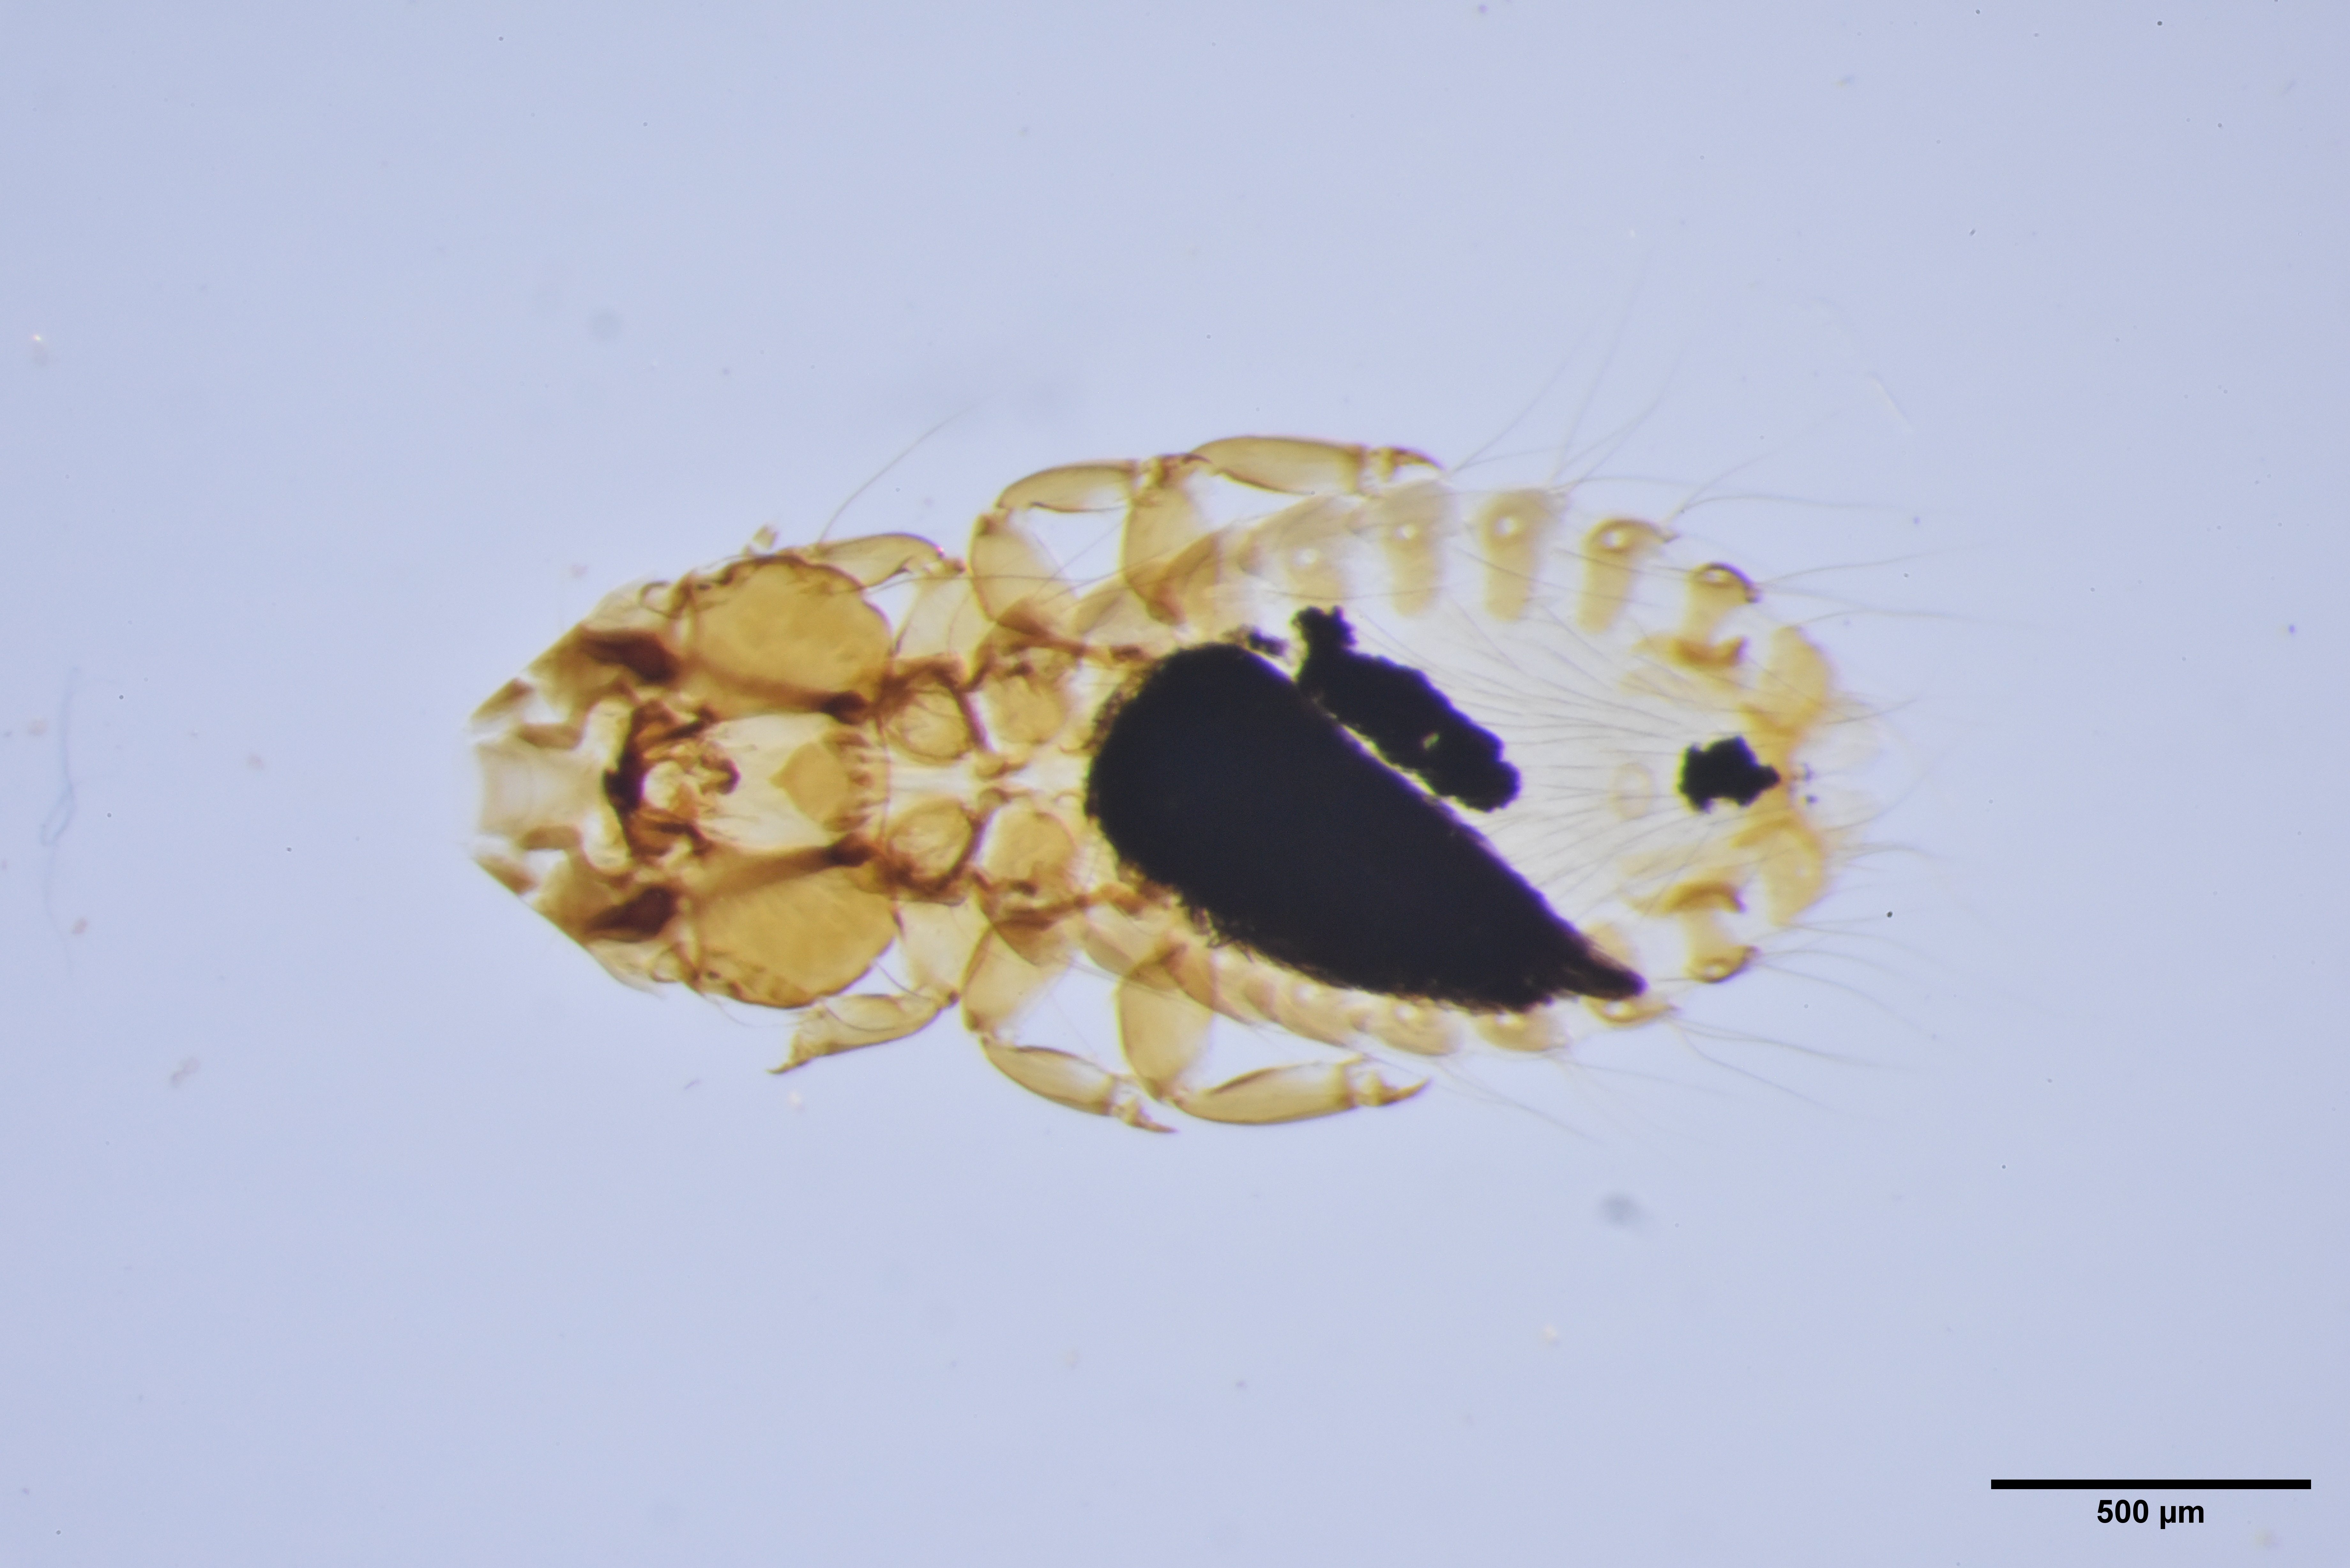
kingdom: Animalia
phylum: Arthropoda
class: Insecta
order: Psocodea
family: Philopteridae
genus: Strigiphilus
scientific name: Strigiphilus syrnii
